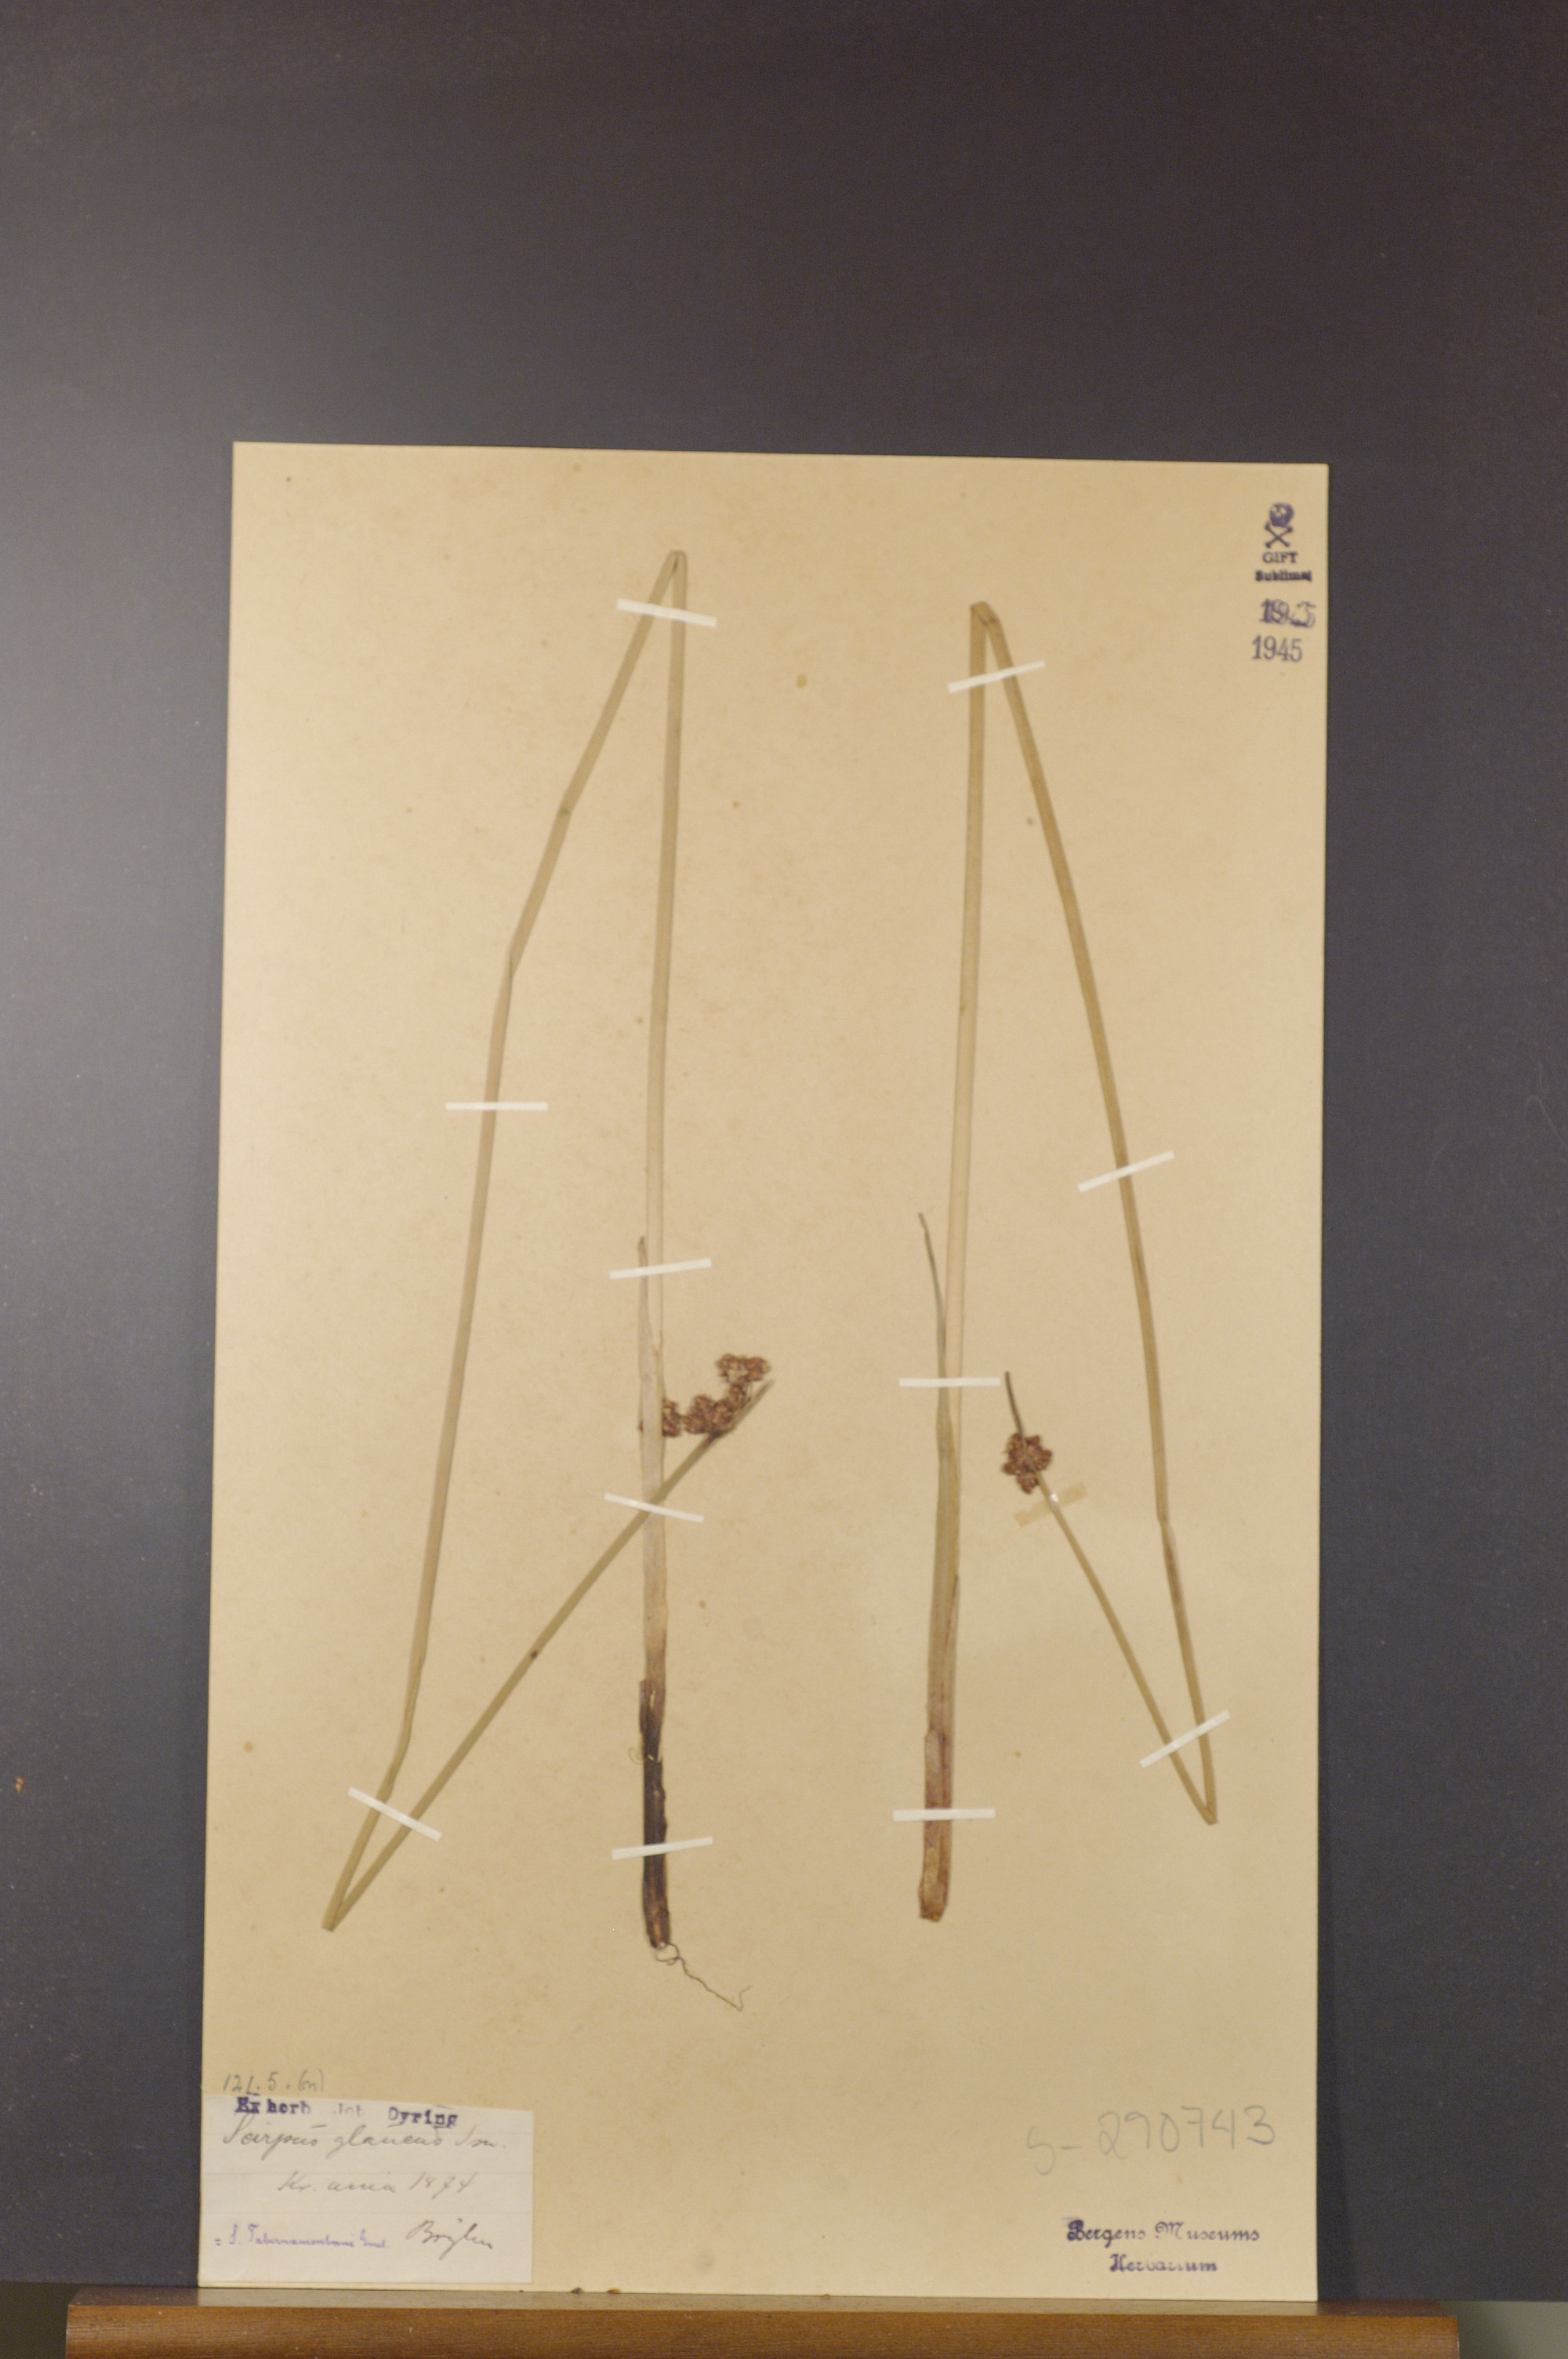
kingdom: Plantae
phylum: Tracheophyta
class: Liliopsida
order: Poales
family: Cyperaceae
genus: Schoenoplectus
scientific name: Schoenoplectus tabernaemontani
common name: Grey club-rush
